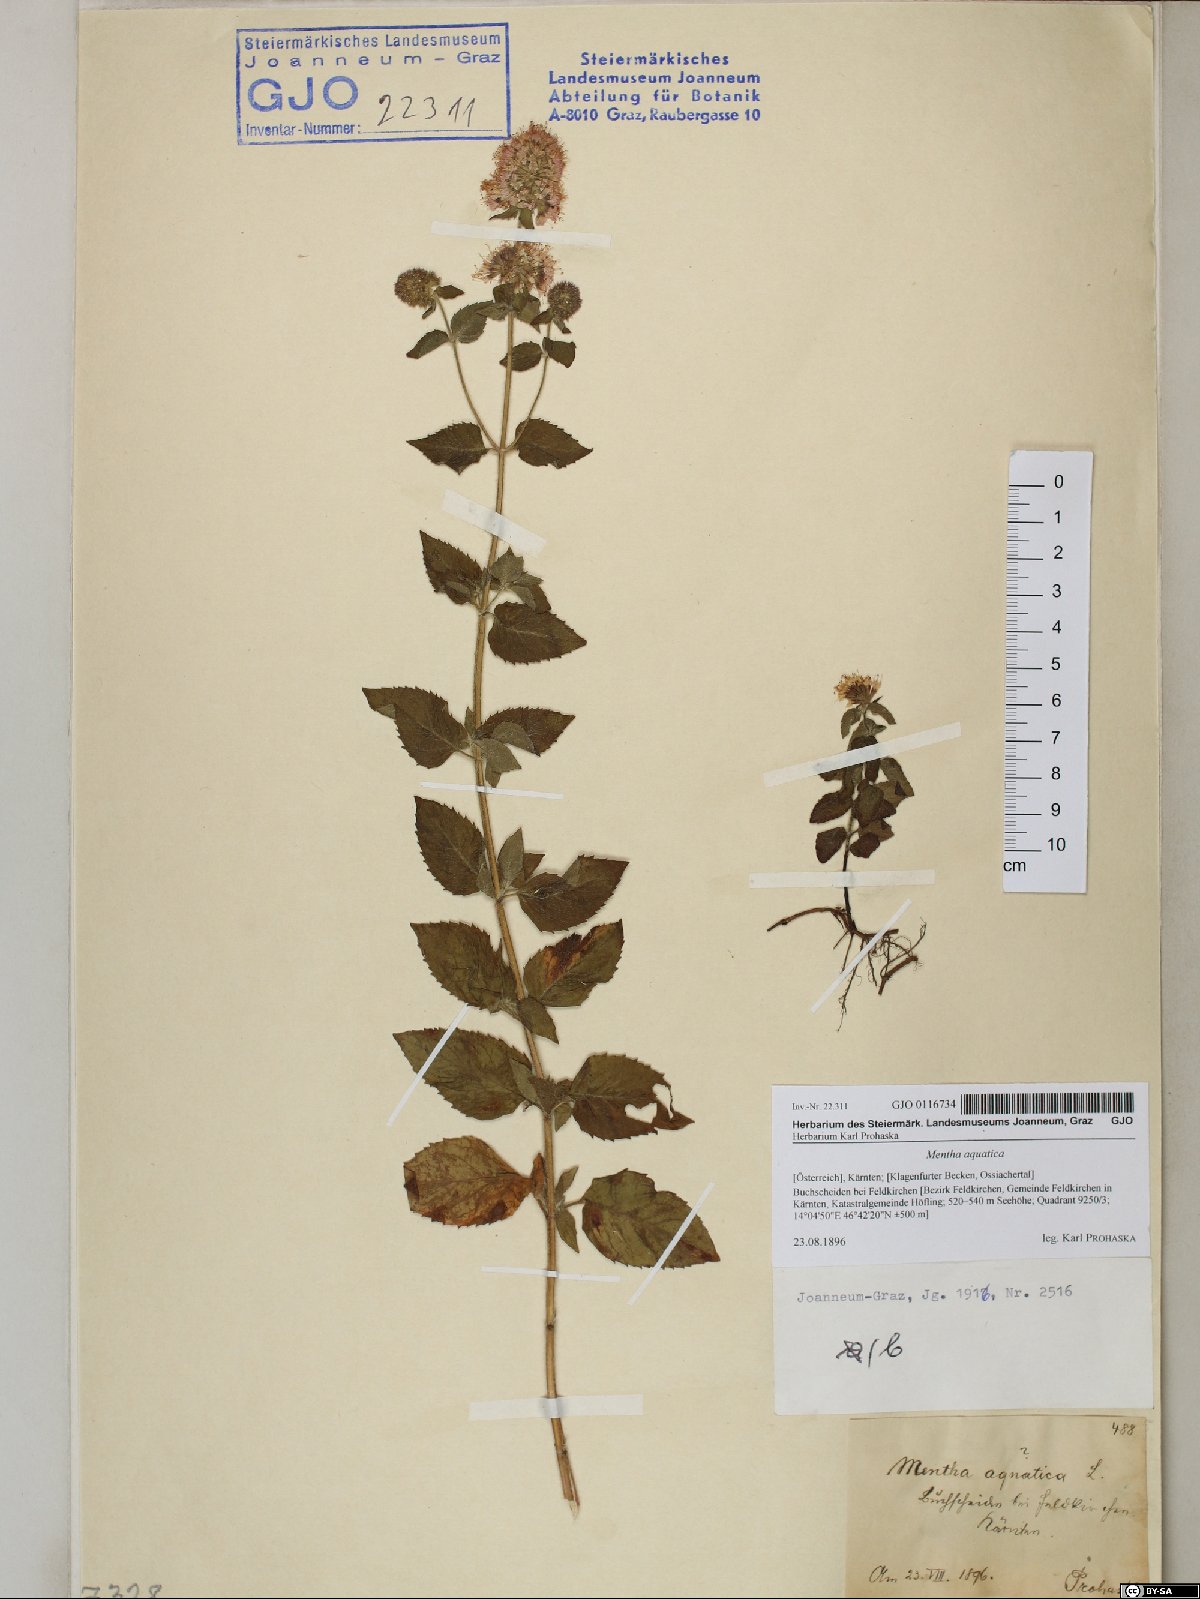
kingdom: Plantae
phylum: Tracheophyta
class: Magnoliopsida
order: Lamiales
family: Lamiaceae
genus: Mentha
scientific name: Mentha aquatica
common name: Water mint
